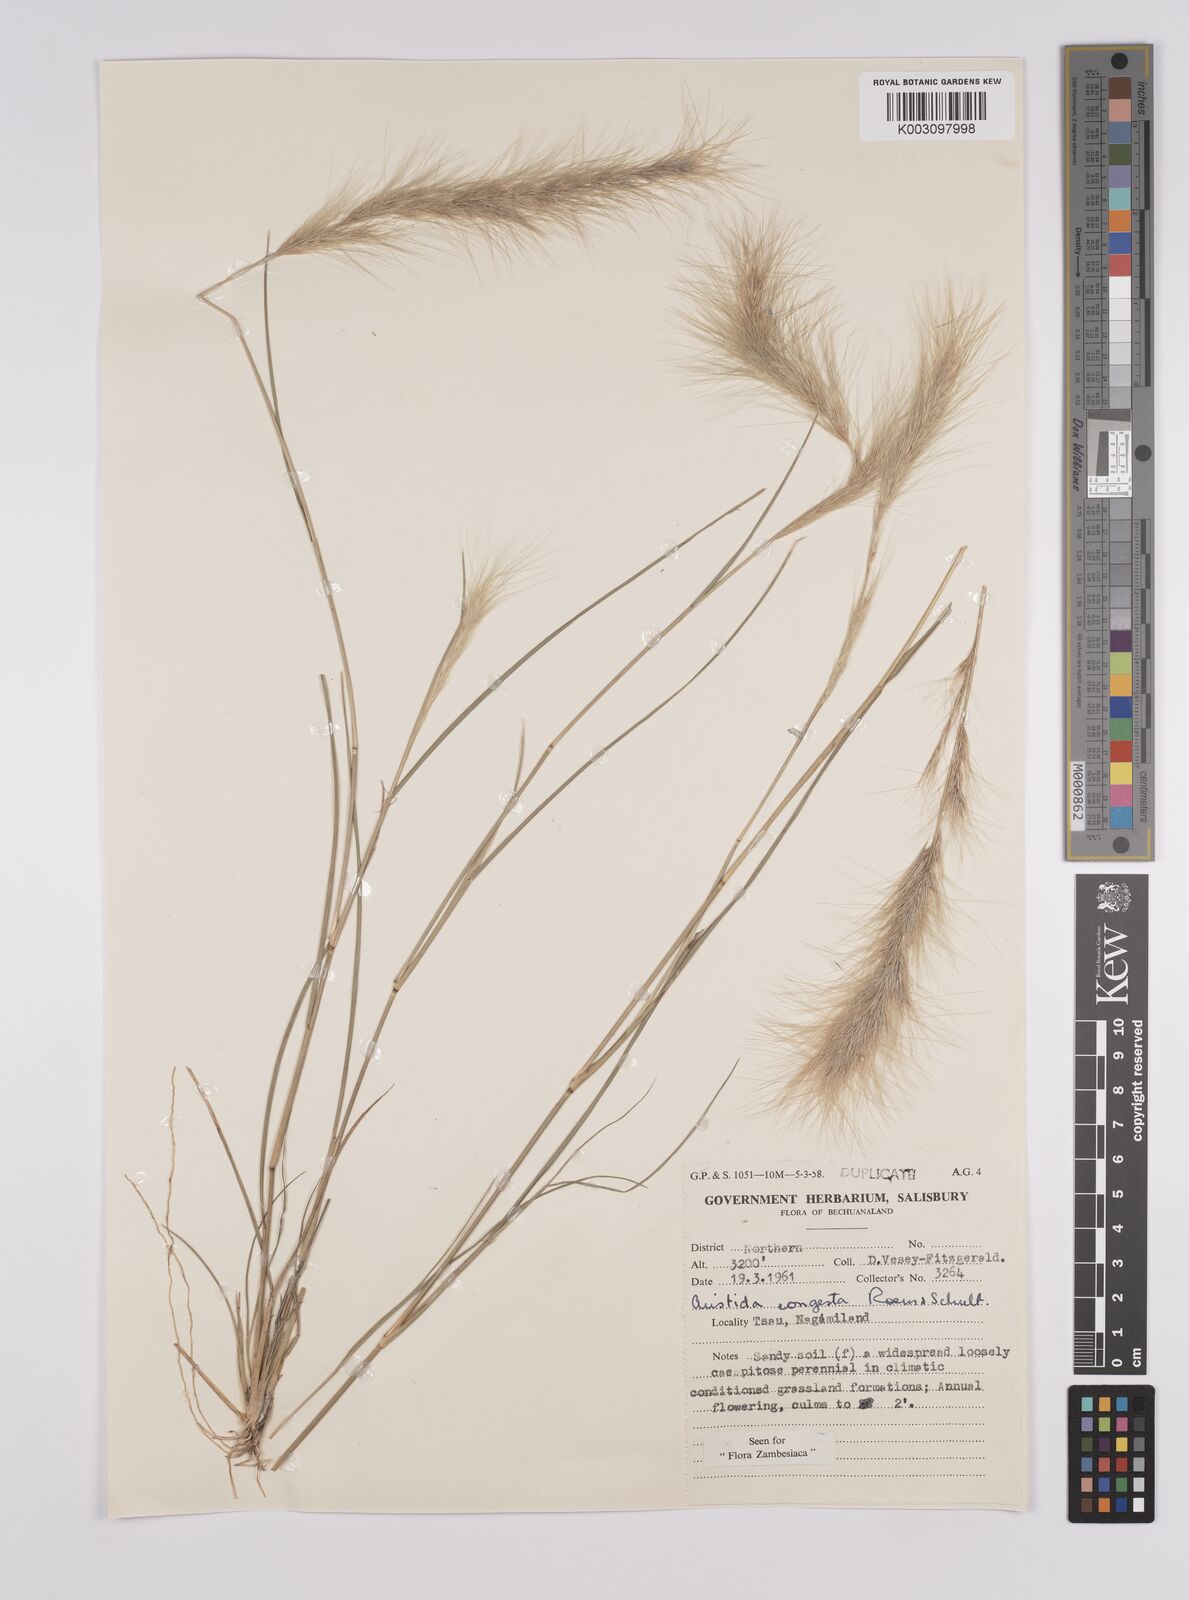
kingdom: Plantae
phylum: Tracheophyta
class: Liliopsida
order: Poales
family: Poaceae
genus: Aristida
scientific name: Aristida congesta
